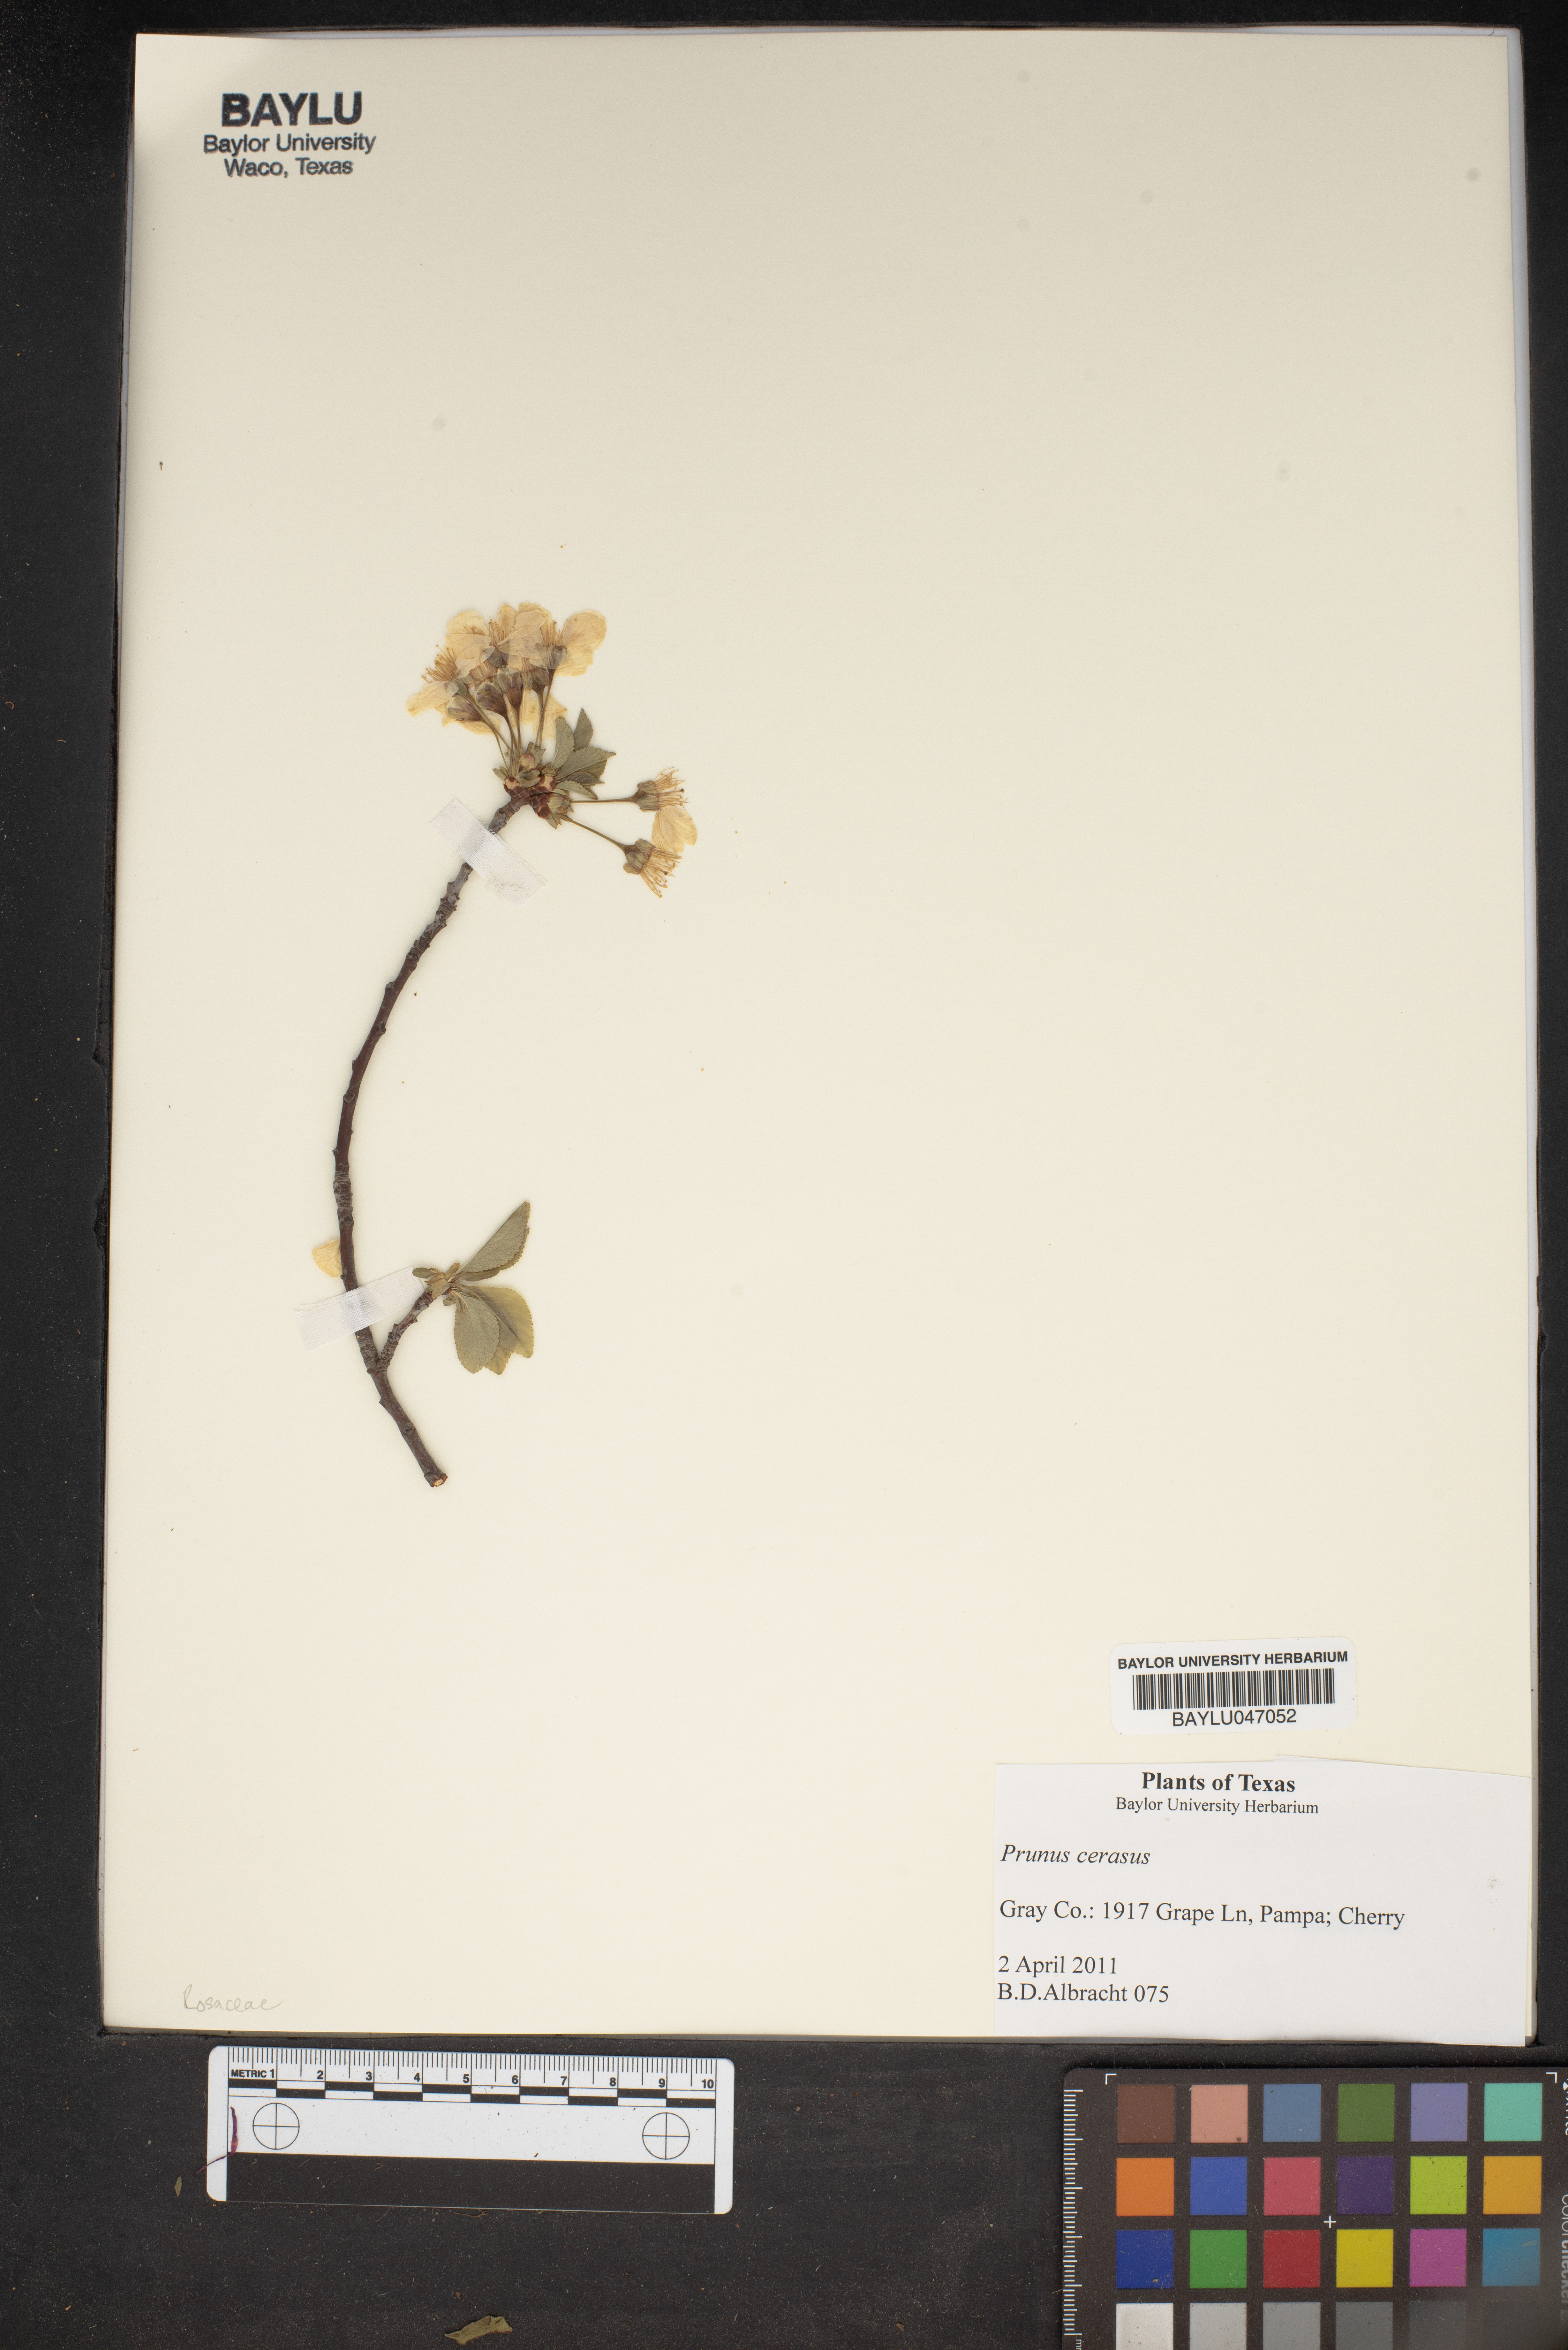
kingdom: Plantae
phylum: Tracheophyta
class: Magnoliopsida
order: Rosales
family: Rosaceae
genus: Prunus
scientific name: Prunus cerasus
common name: Morello cherry
